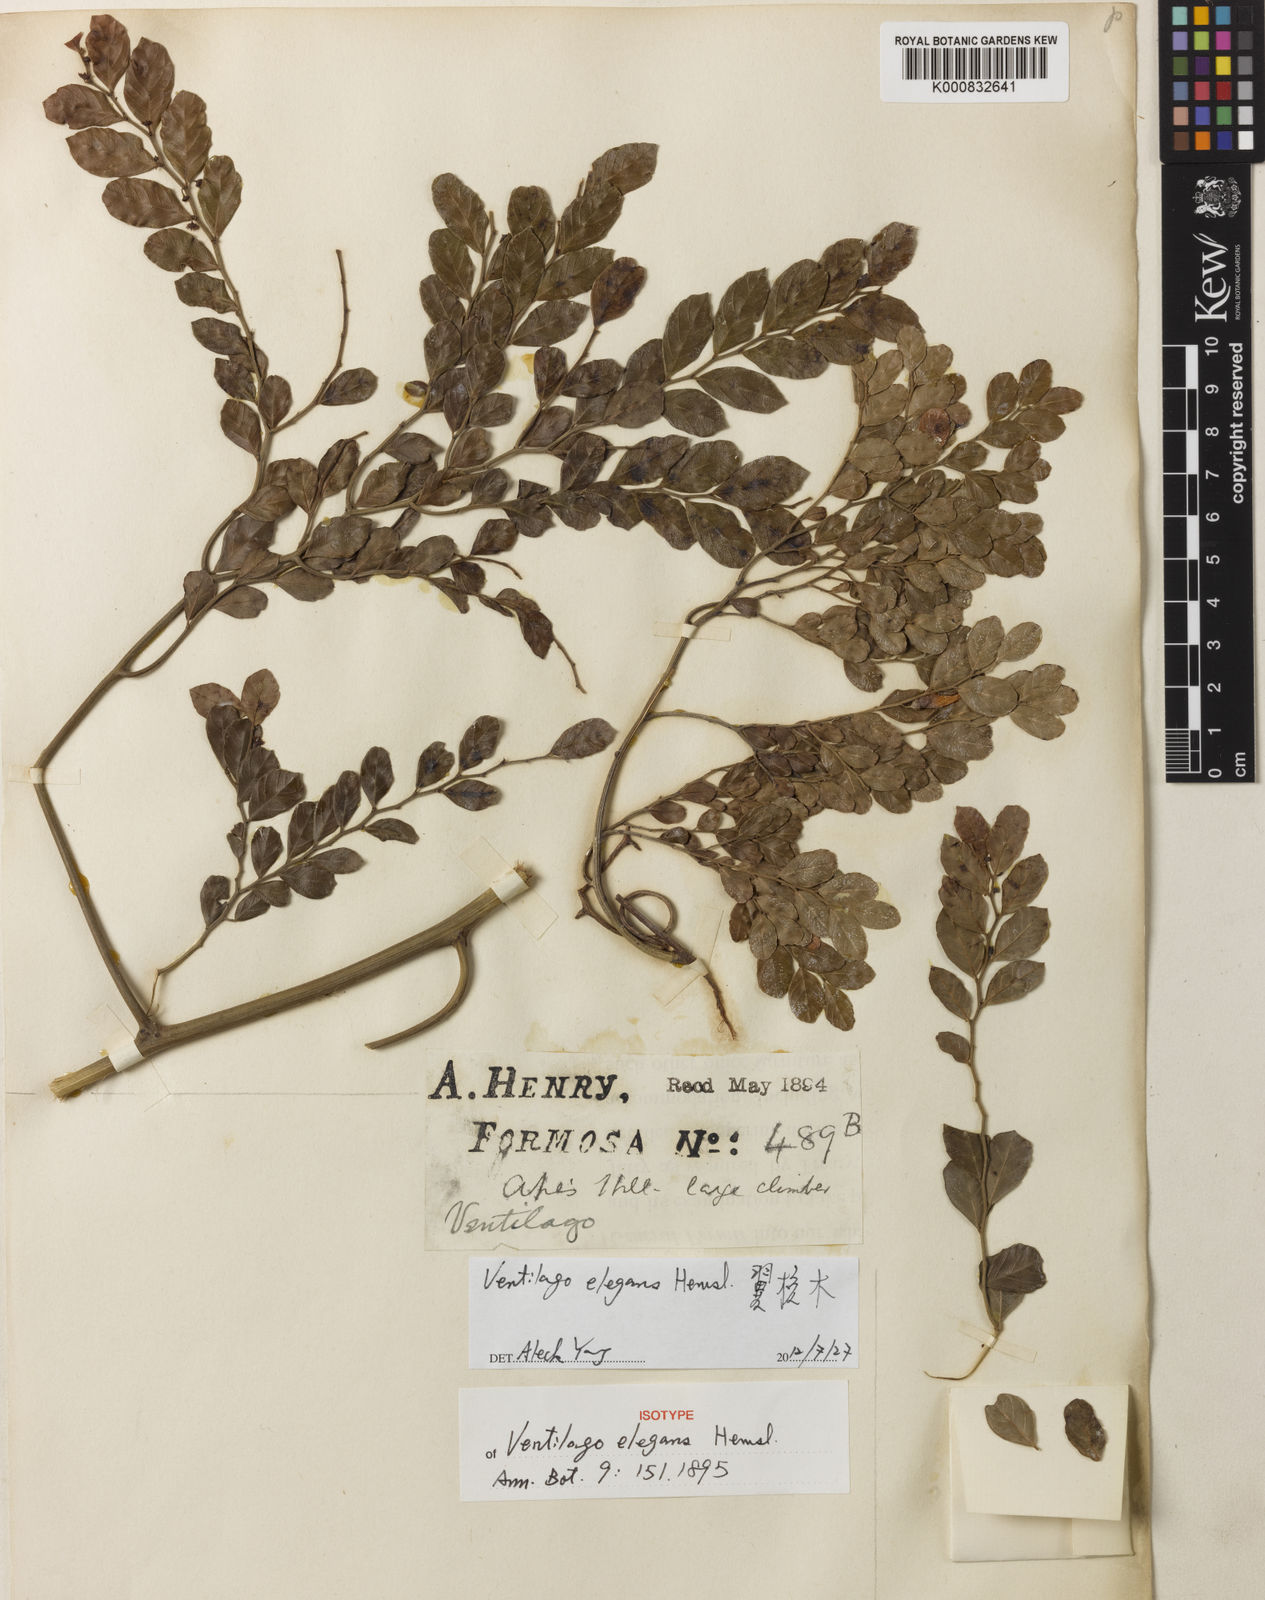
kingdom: Plantae
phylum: Tracheophyta
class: Magnoliopsida
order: Rosales
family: Rhamnaceae
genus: Ventilago
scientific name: Ventilago elegans
